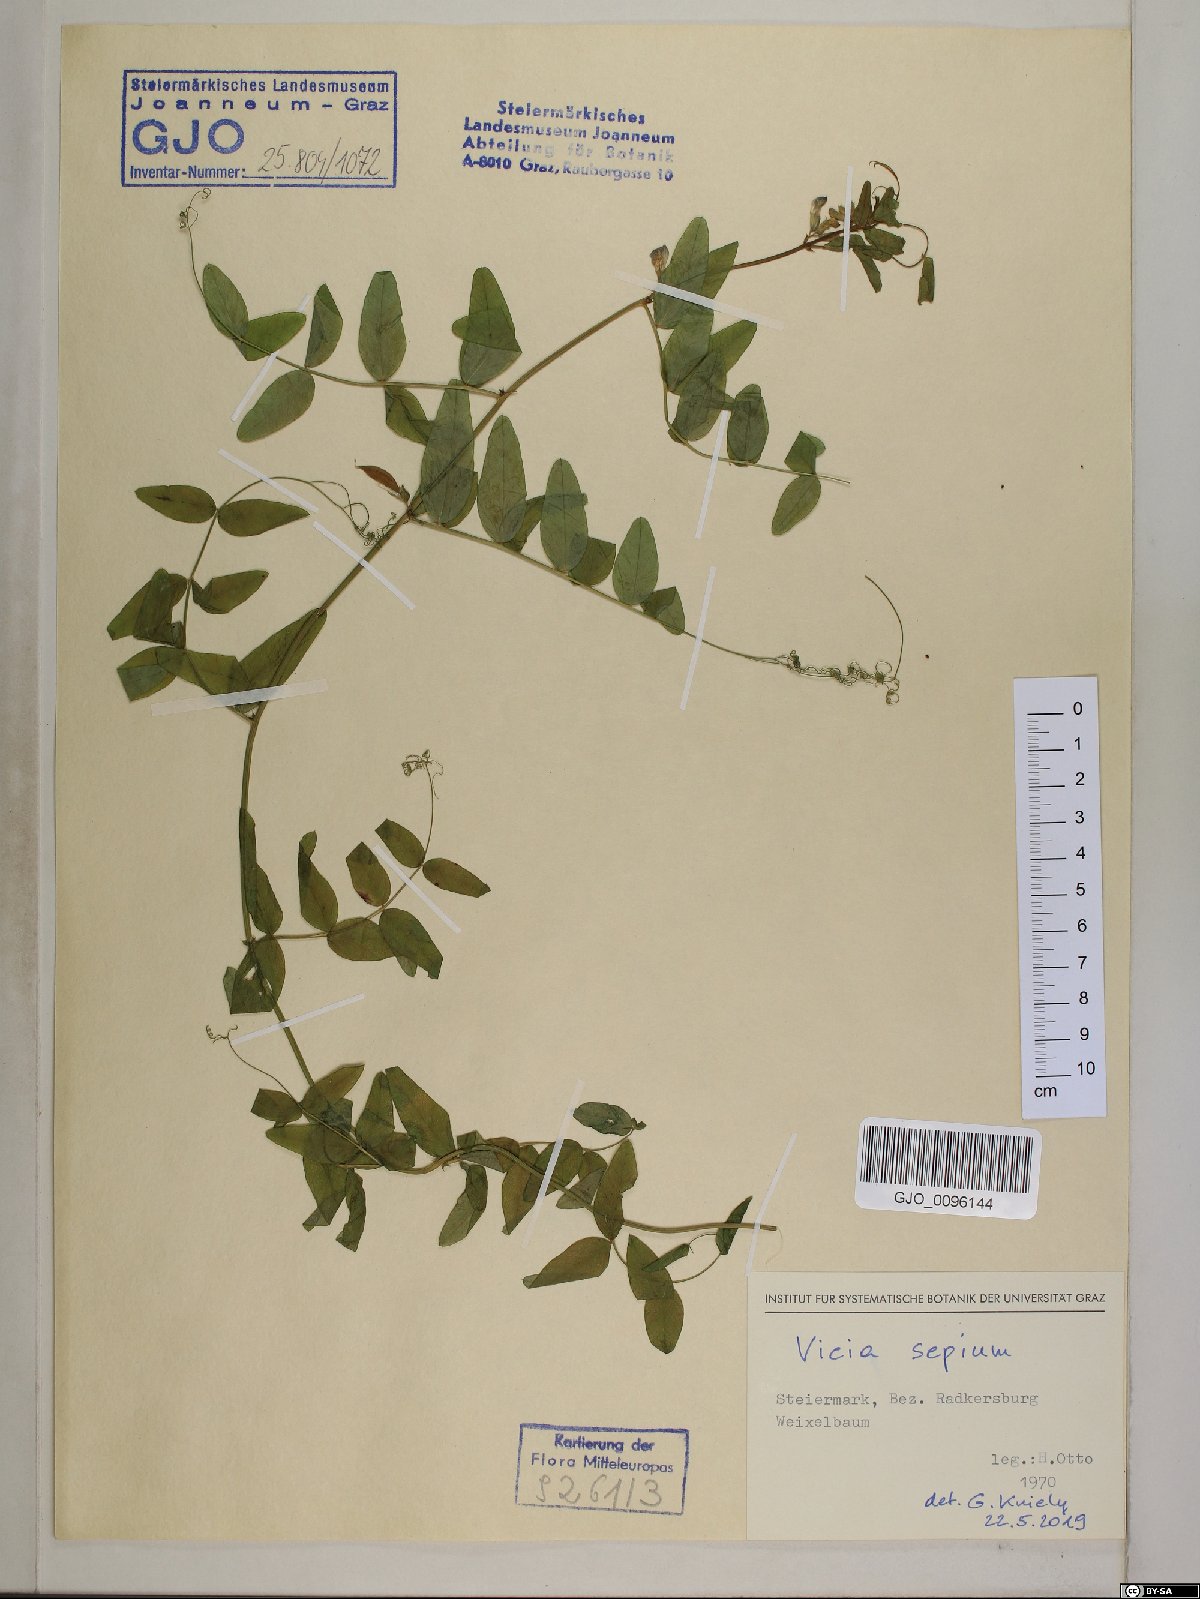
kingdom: Plantae
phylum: Tracheophyta
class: Magnoliopsida
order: Fabales
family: Fabaceae
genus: Vicia
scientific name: Vicia sepium
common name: Bush vetch
